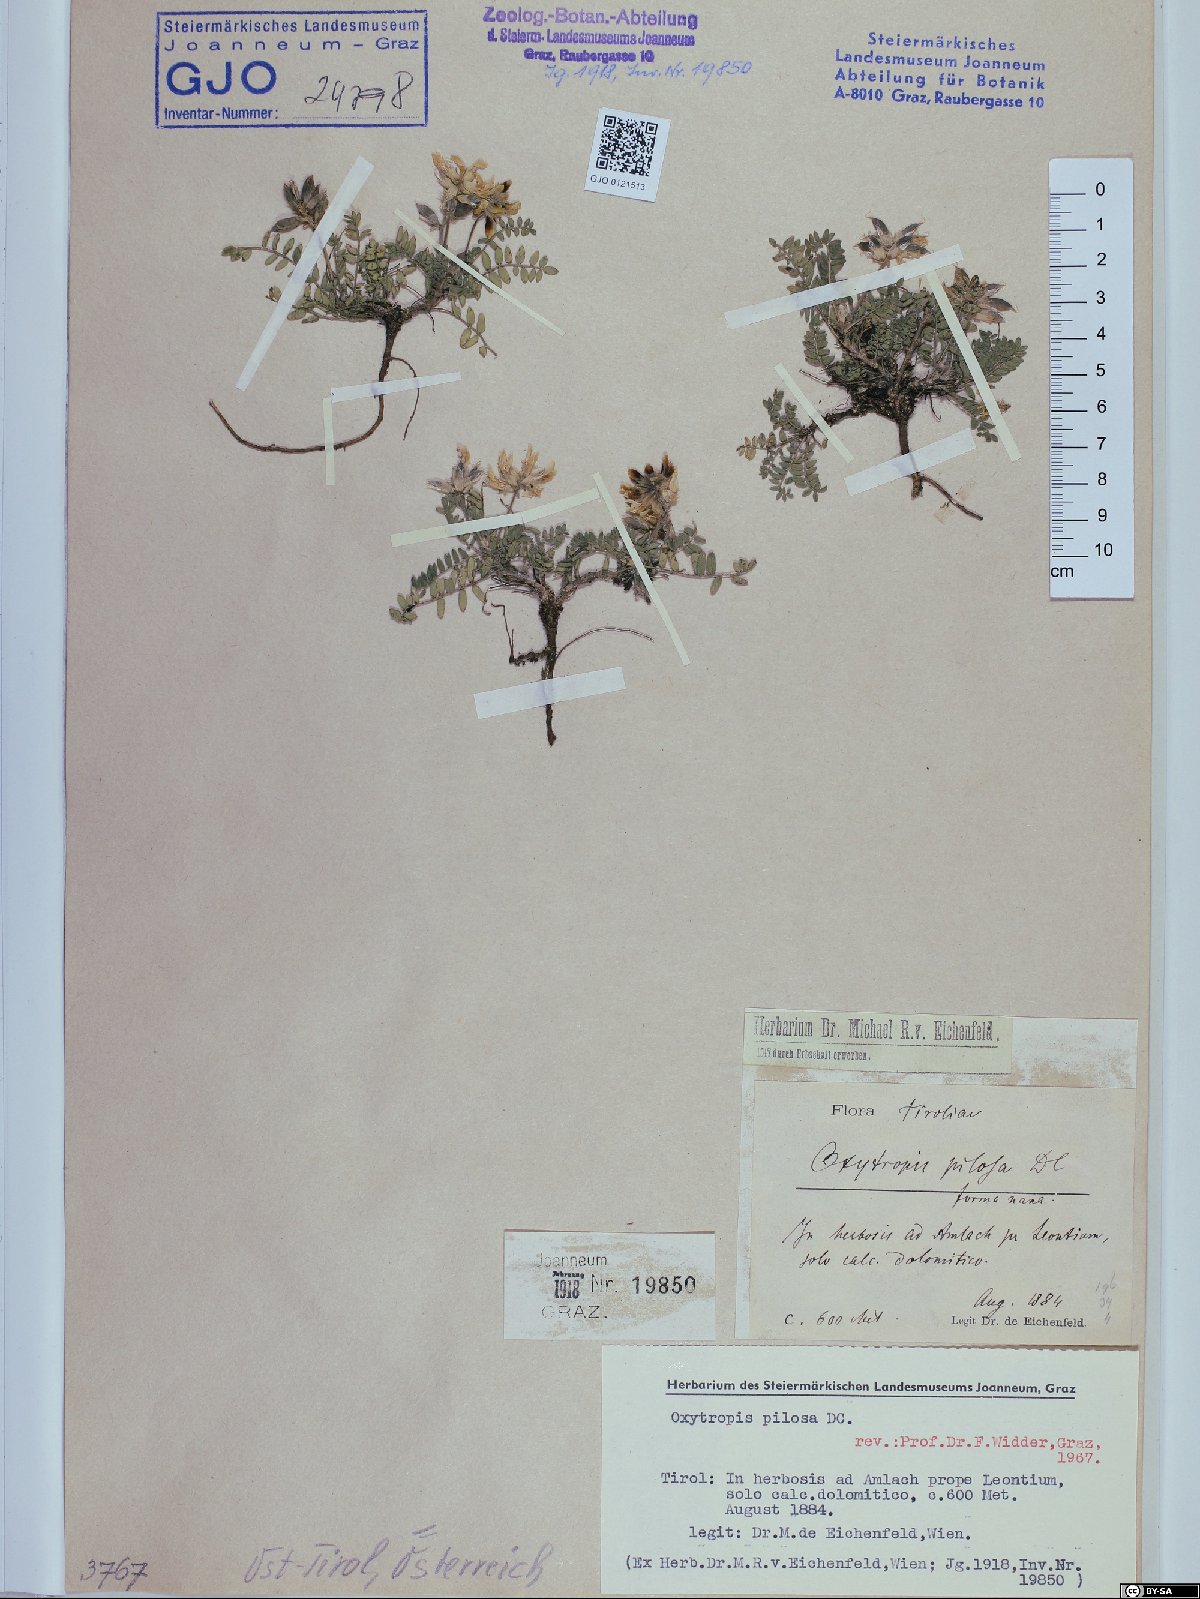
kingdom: Plantae
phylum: Tracheophyta
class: Magnoliopsida
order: Fabales
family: Fabaceae
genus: Oxytropis
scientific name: Oxytropis pilosa
